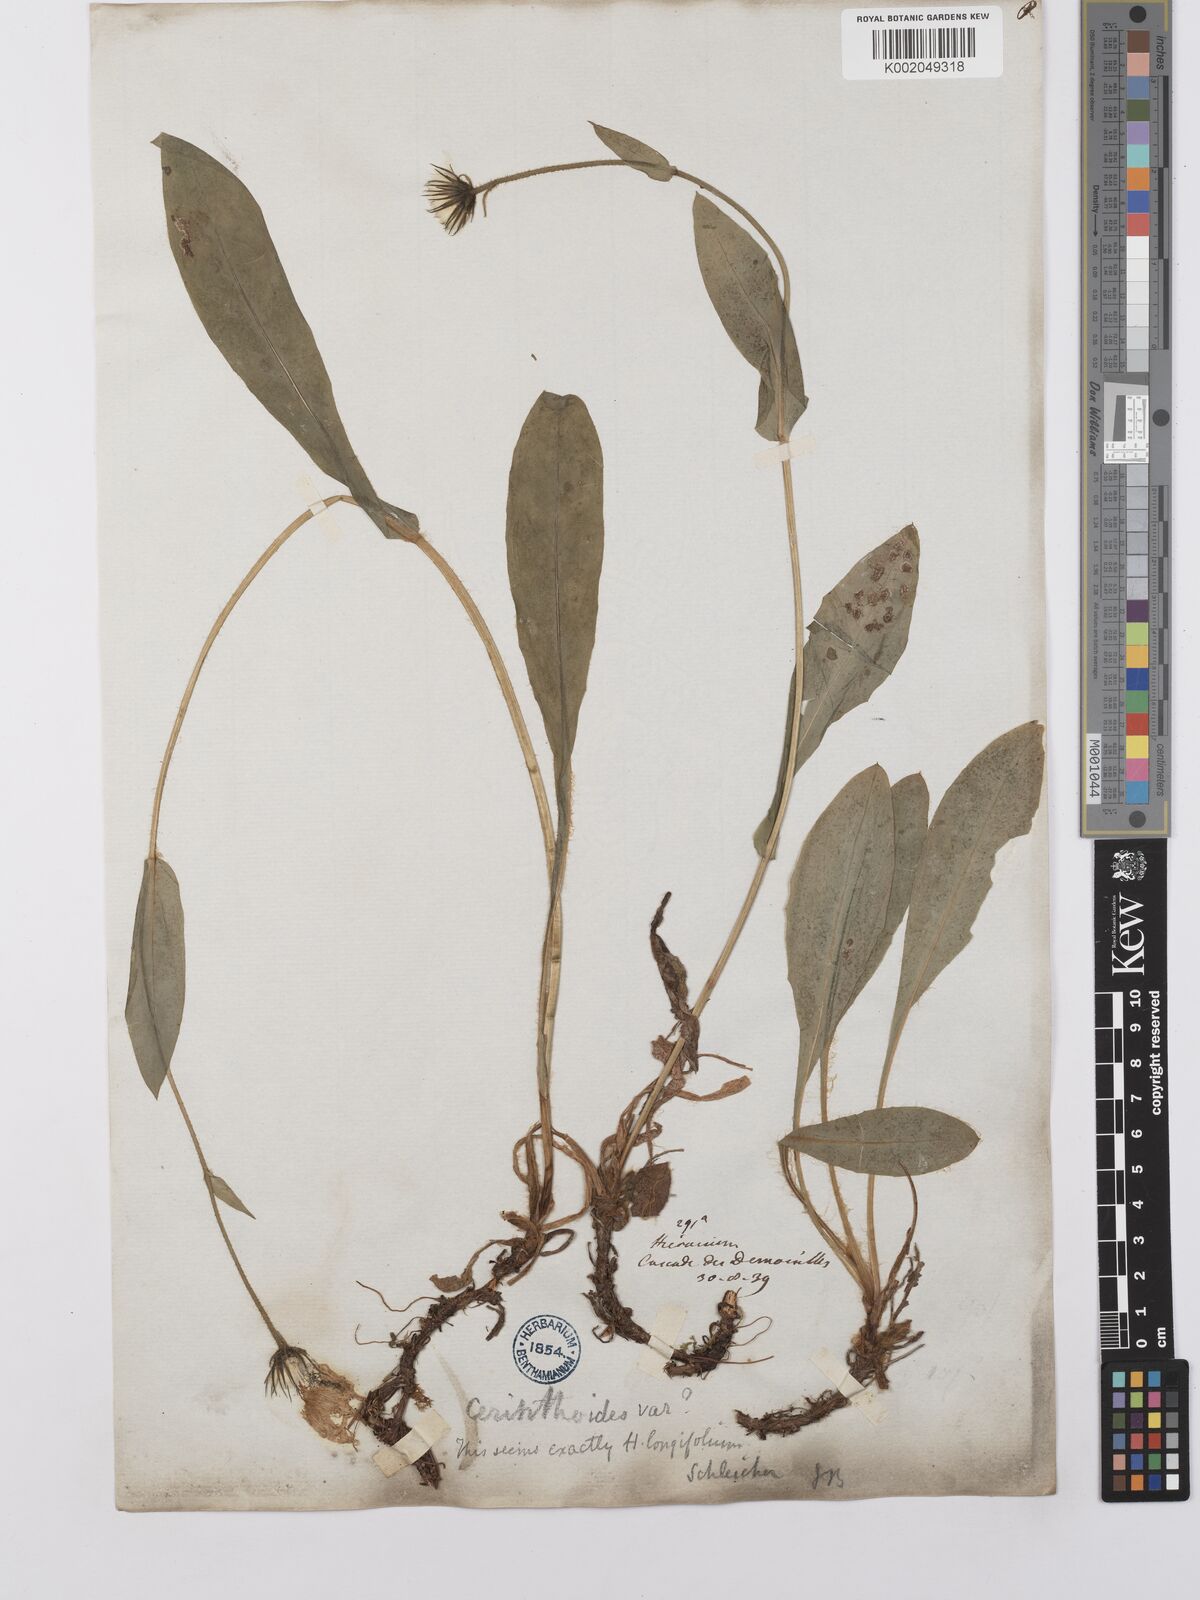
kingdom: Plantae
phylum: Tracheophyta
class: Magnoliopsida
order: Asterales
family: Asteraceae
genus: Hieracium
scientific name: Hieracium cerinthoides
